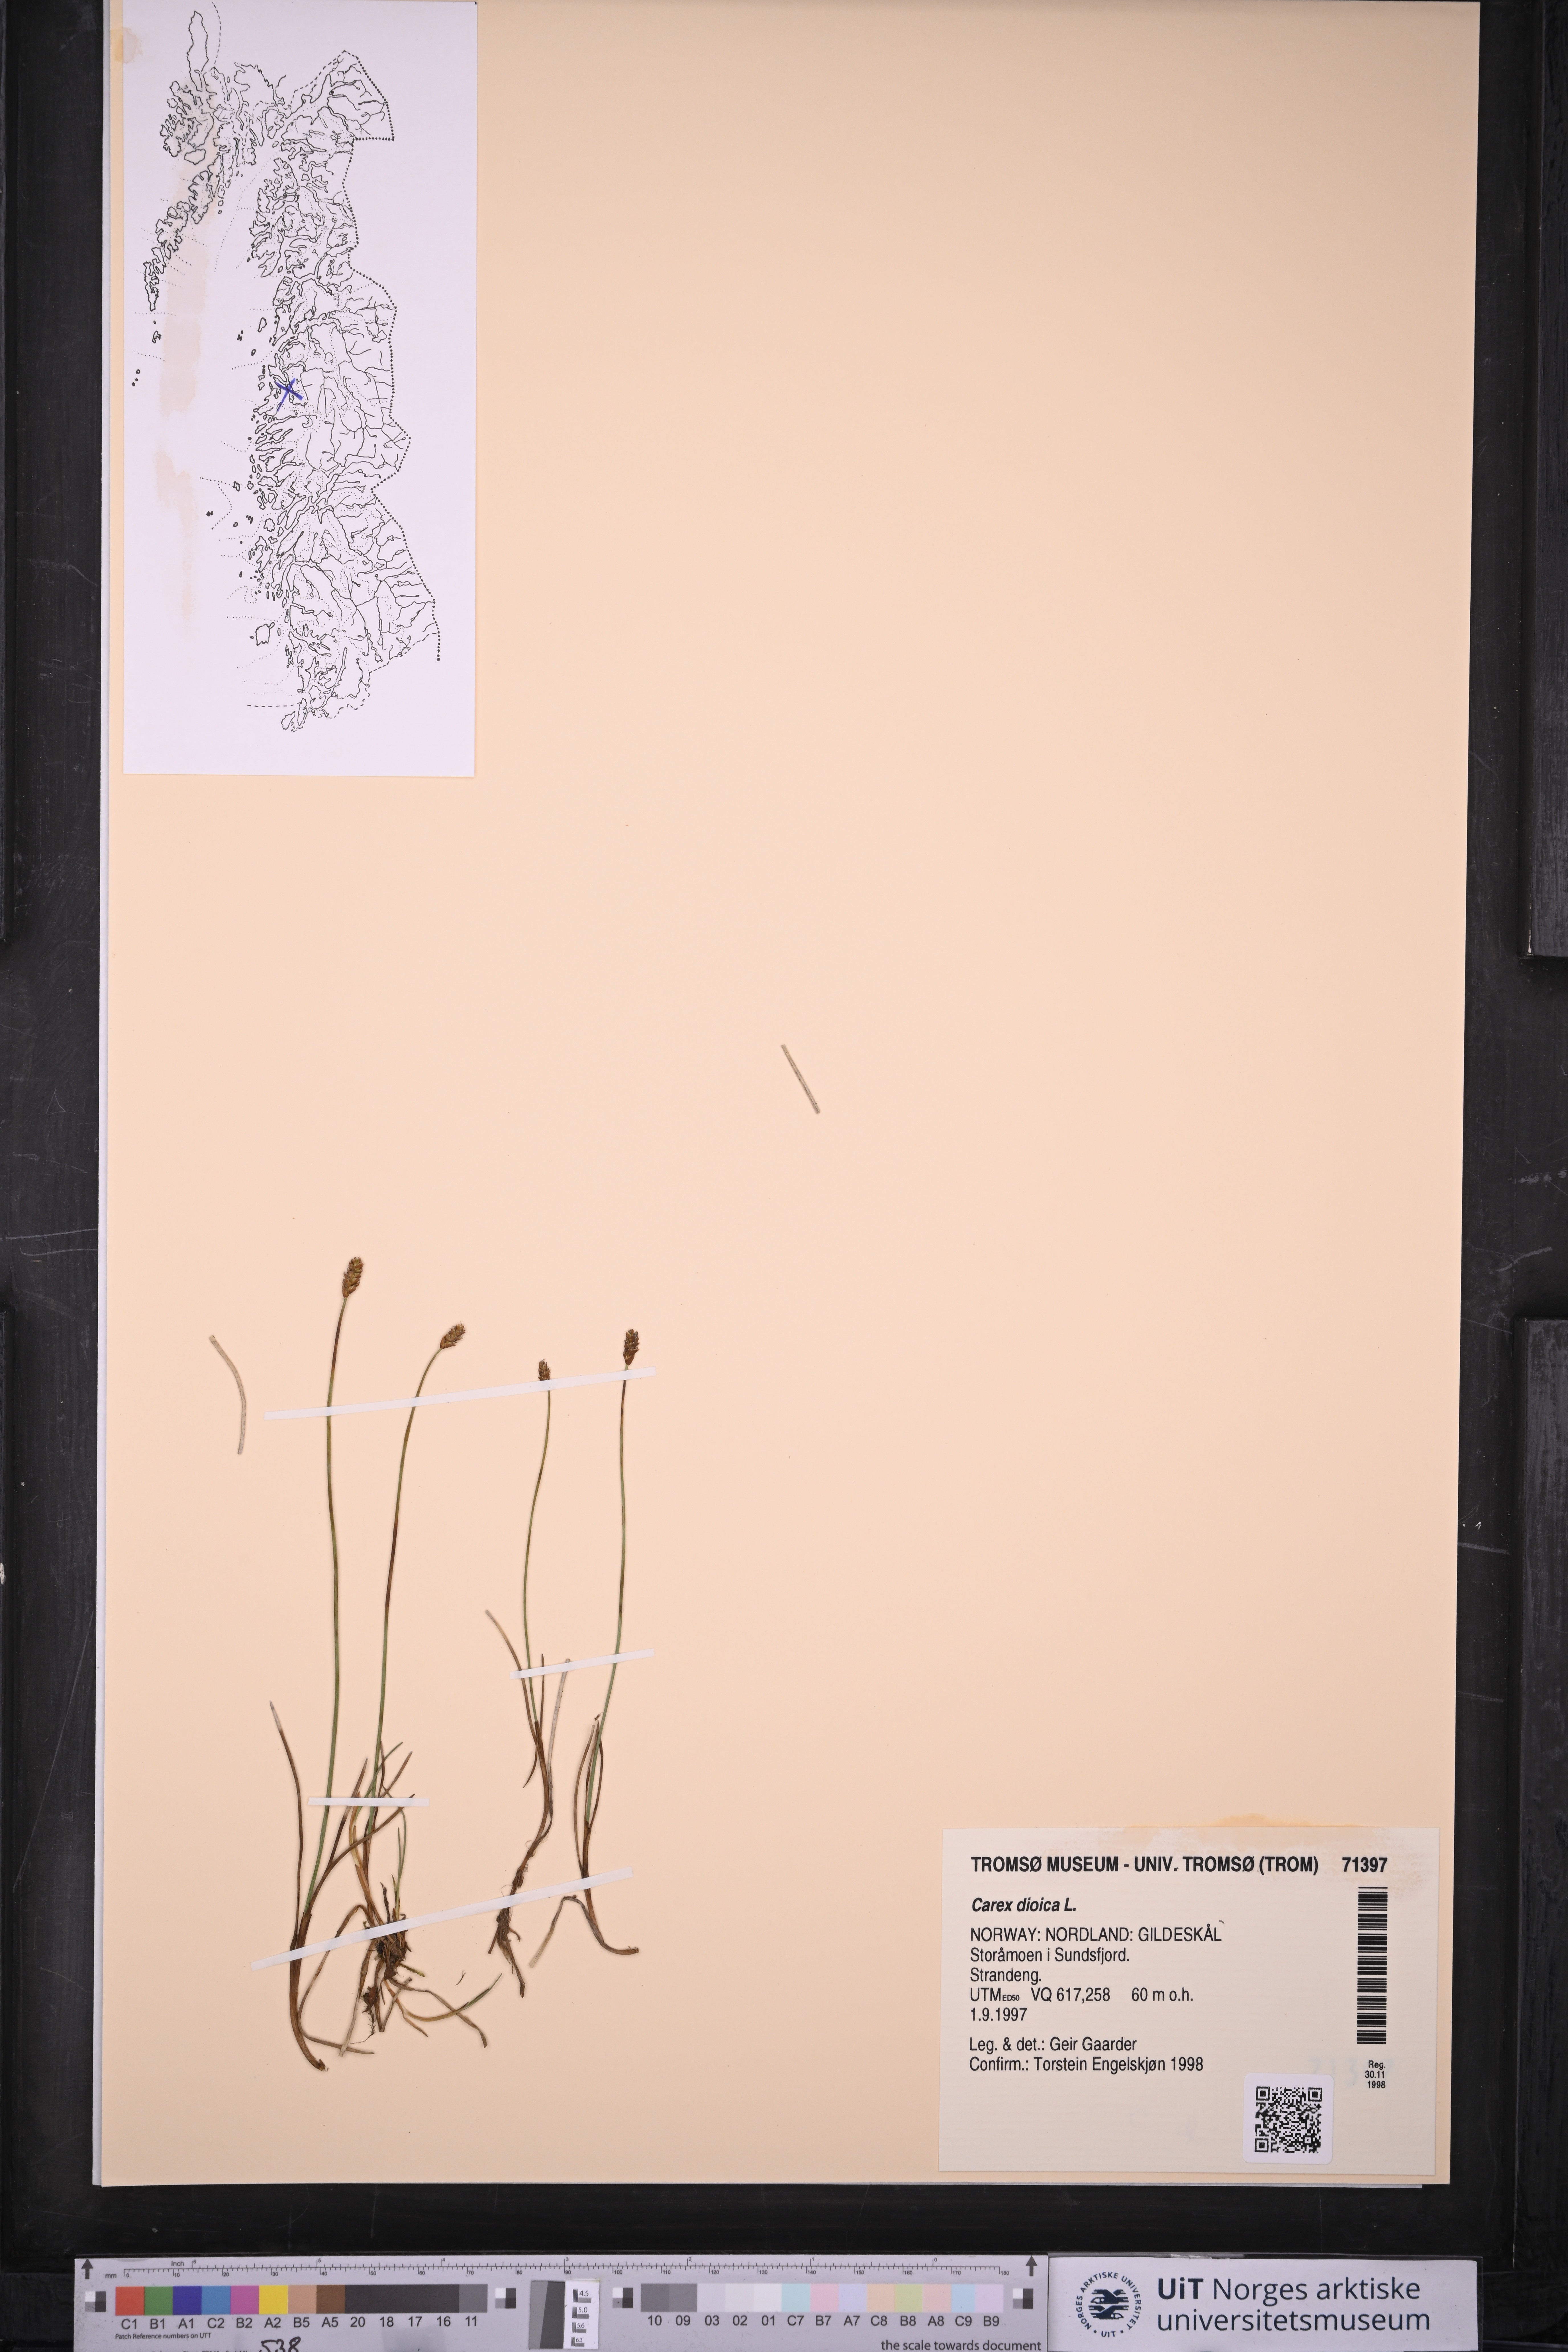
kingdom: Plantae
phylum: Tracheophyta
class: Liliopsida
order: Poales
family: Cyperaceae
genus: Carex
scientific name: Carex dioica
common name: Dioecious sedge
